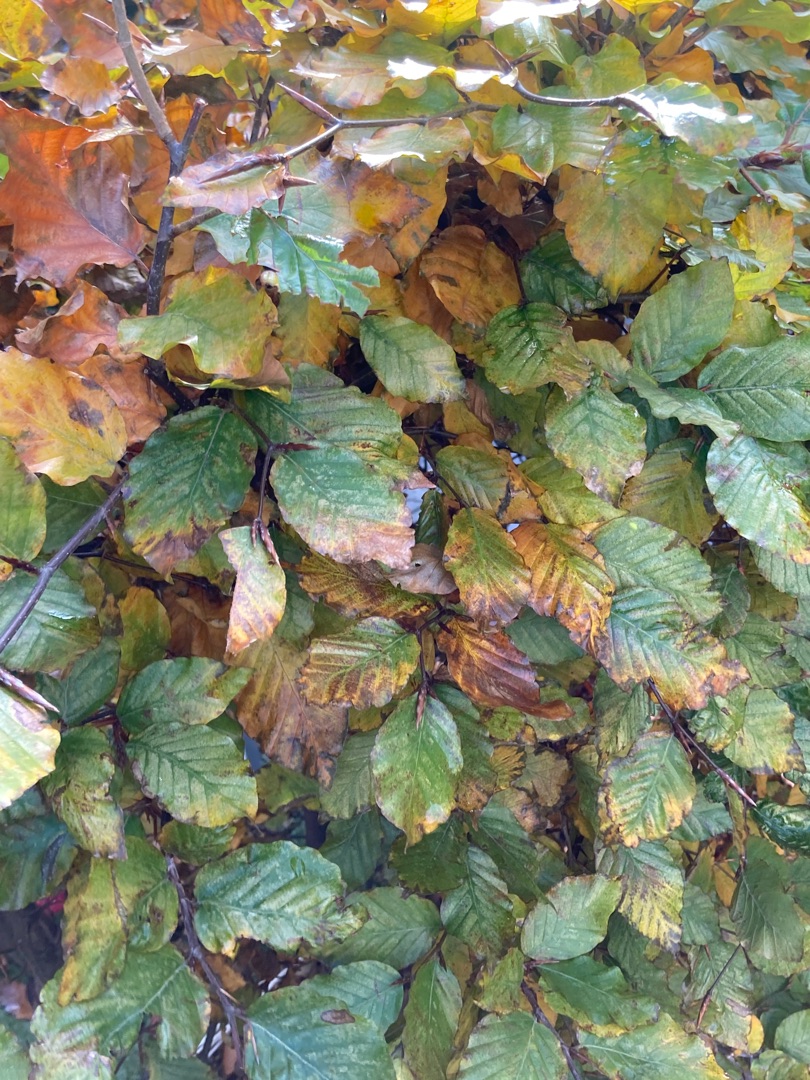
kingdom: Plantae
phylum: Tracheophyta
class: Magnoliopsida
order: Fagales
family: Fagaceae
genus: Fagus
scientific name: Fagus sylvatica
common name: Bøg
